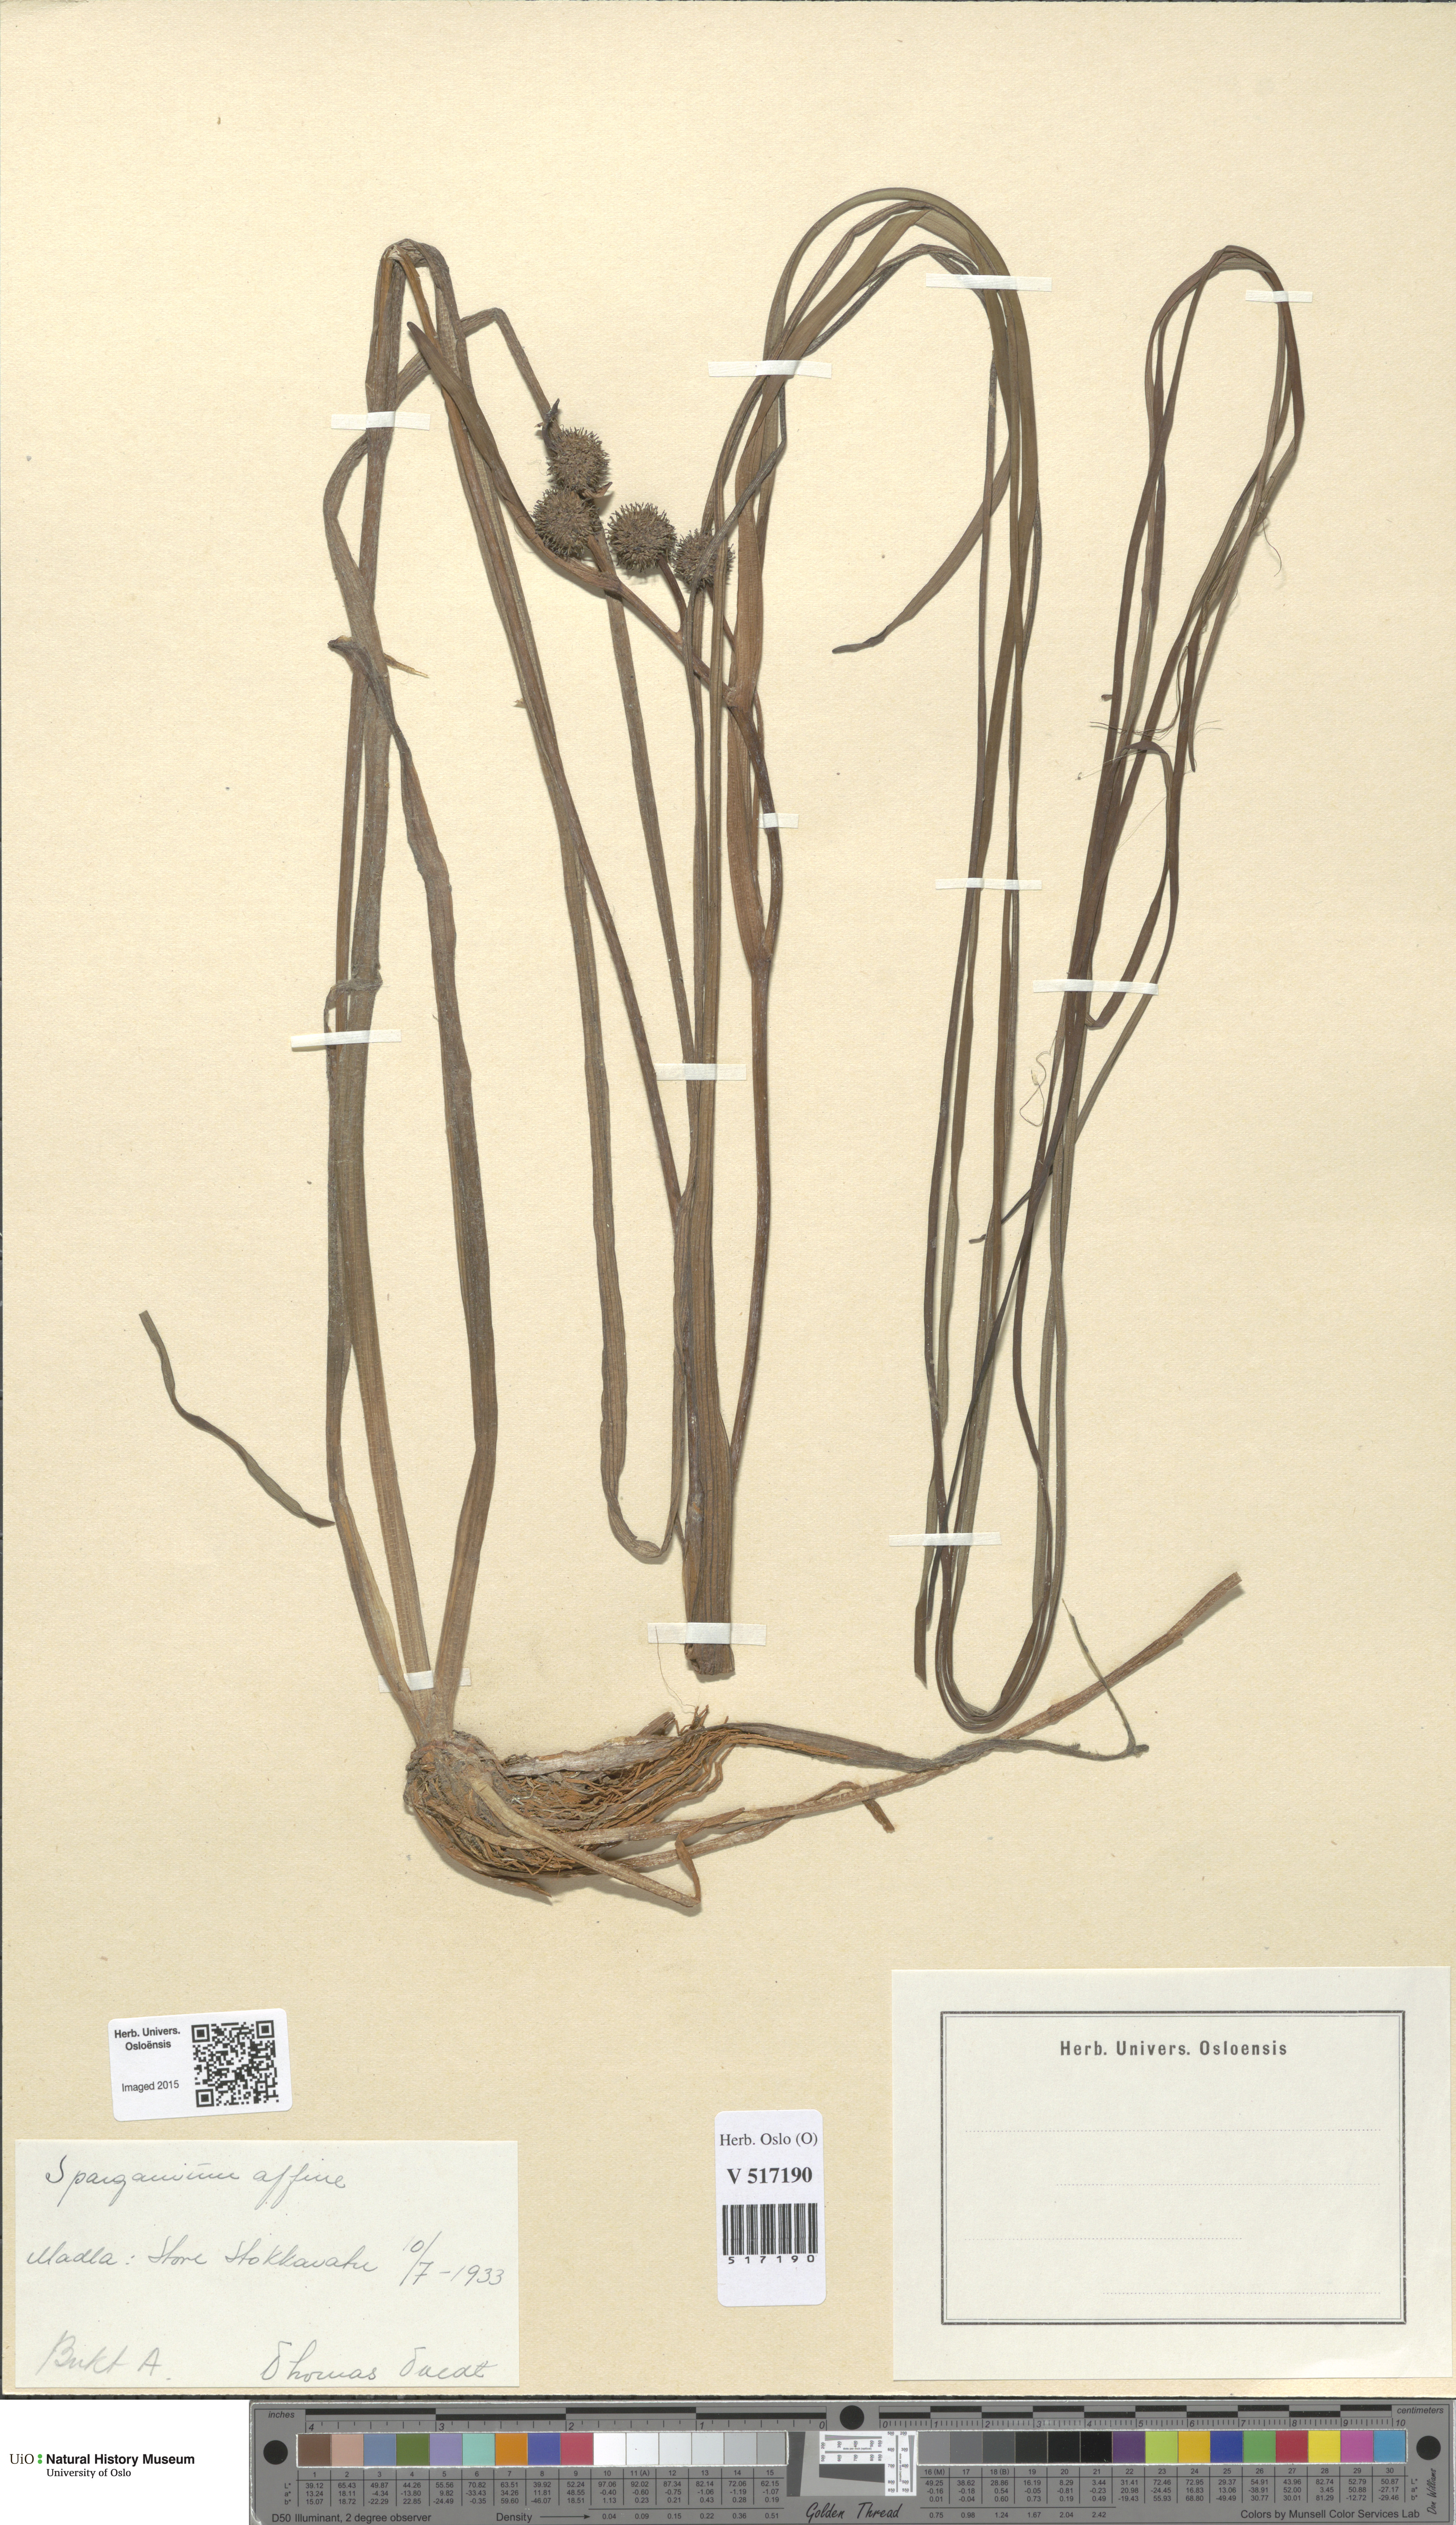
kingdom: Plantae
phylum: Tracheophyta
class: Liliopsida
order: Poales
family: Typhaceae
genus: Sparganium
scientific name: Sparganium angustifolium
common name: Floating bur-reed
